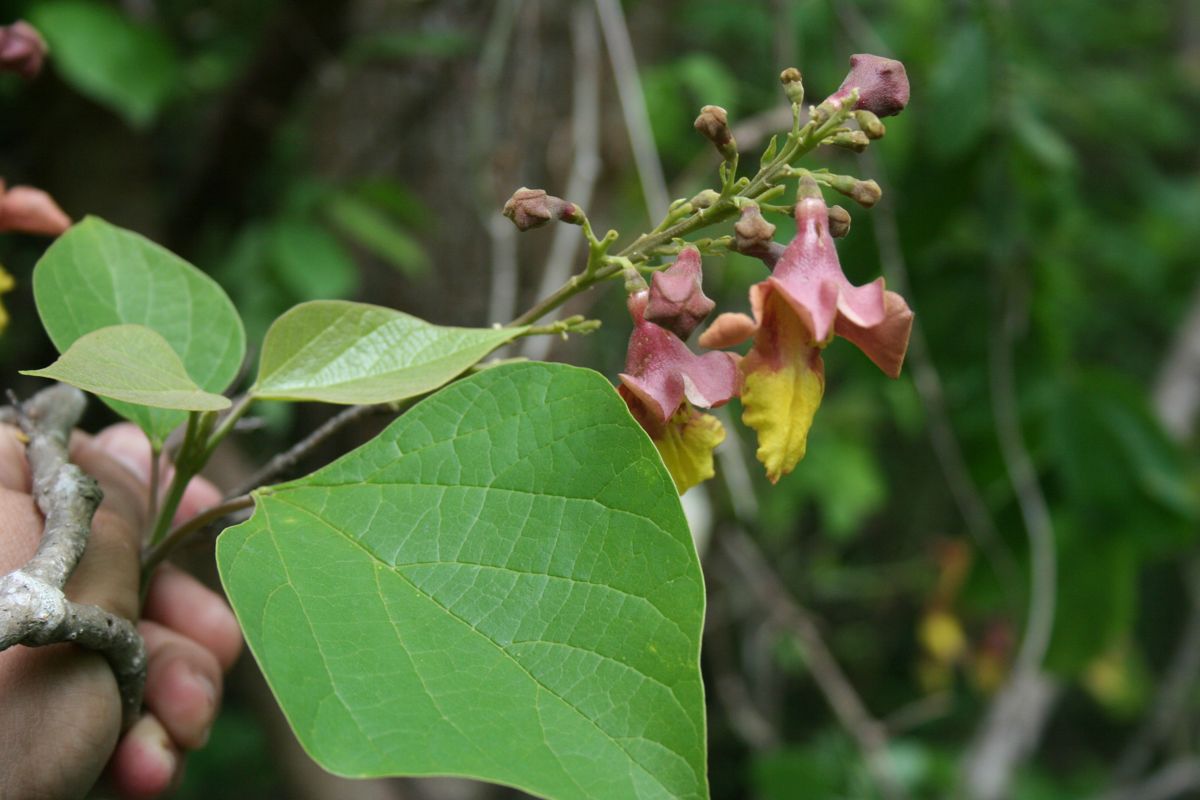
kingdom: Plantae
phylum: Tracheophyta
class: Magnoliopsida
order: Lamiales
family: Lamiaceae
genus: Gmelina
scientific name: Gmelina arborea
